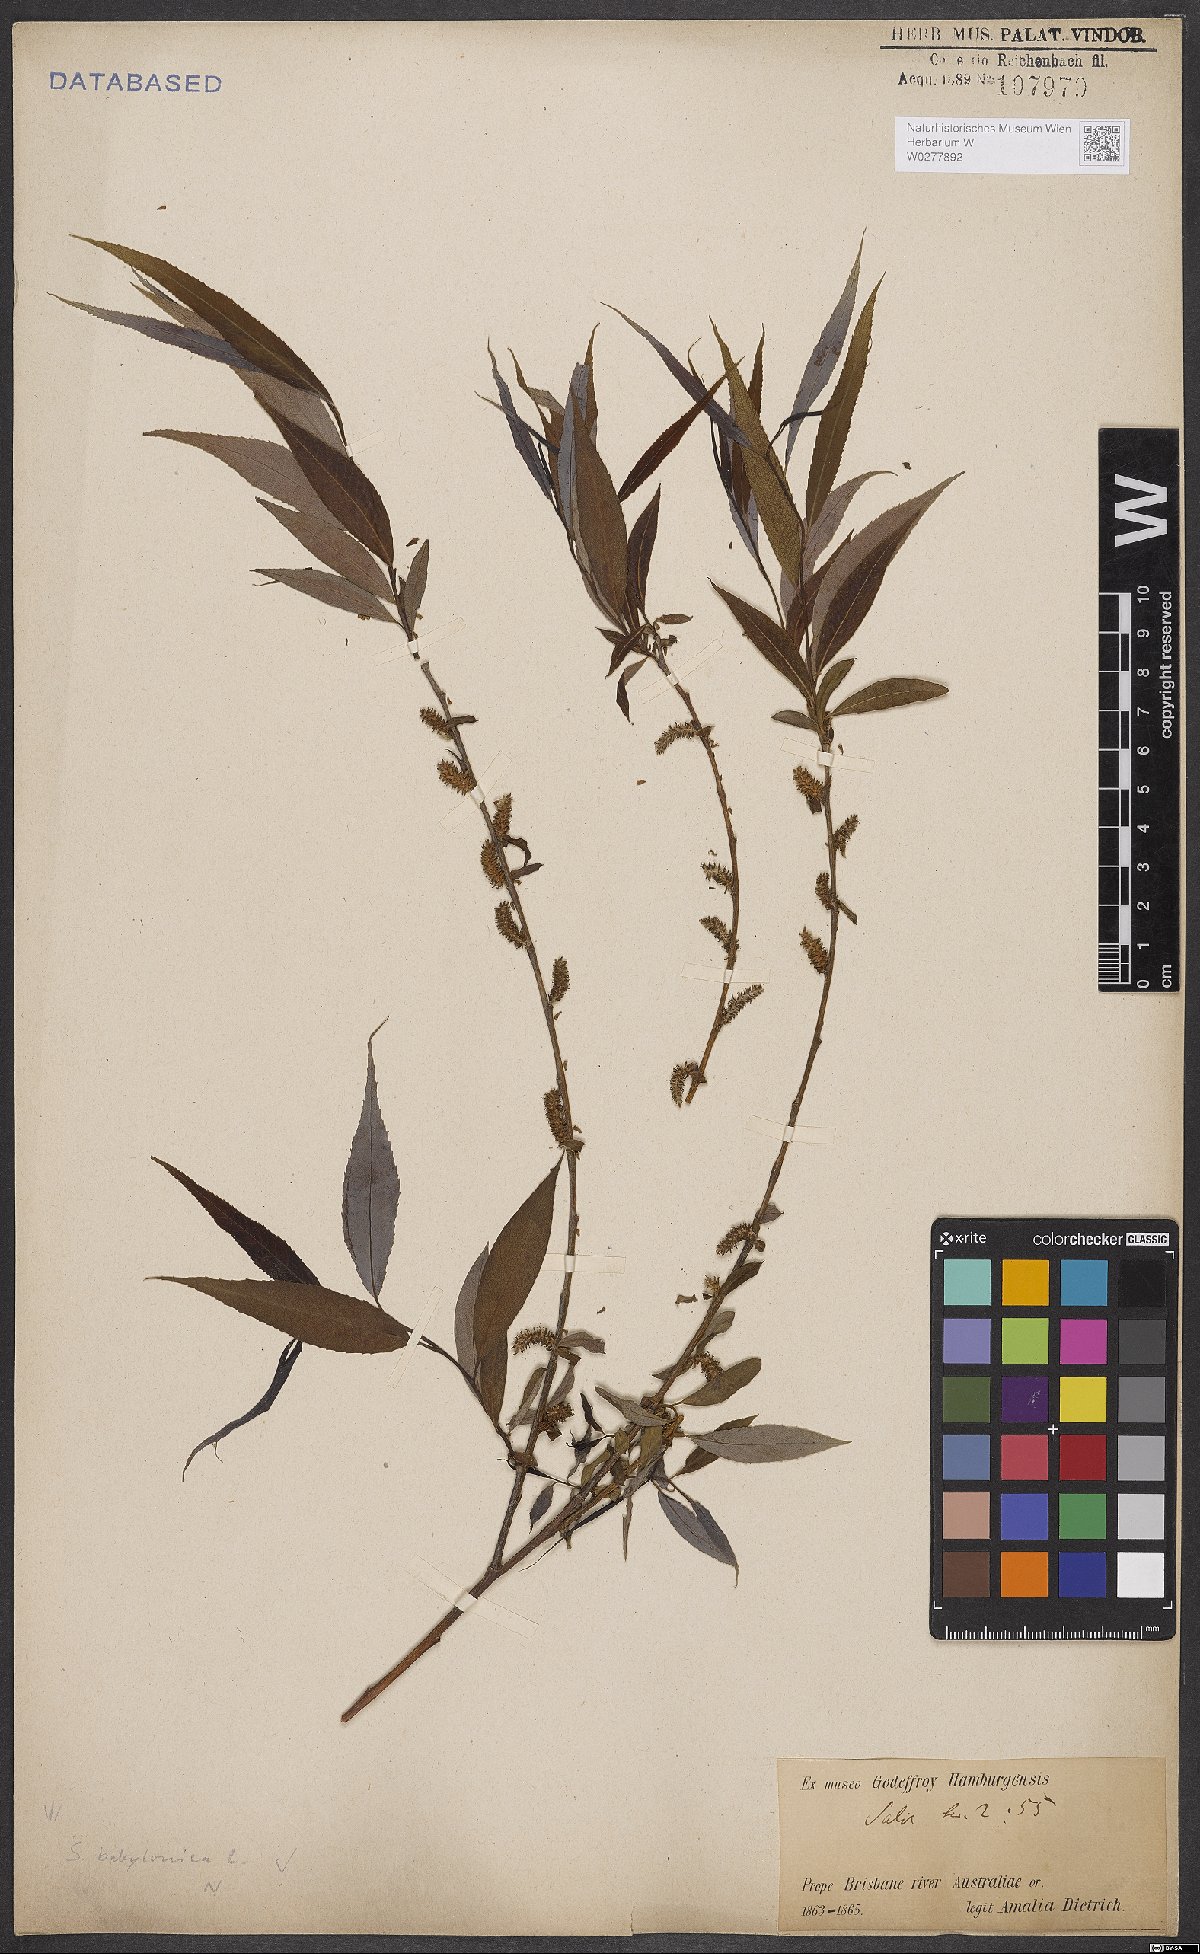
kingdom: Plantae
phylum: Tracheophyta
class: Magnoliopsida
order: Malpighiales
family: Salicaceae
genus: Salix
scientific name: Salix babylonica
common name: Weeping willow
